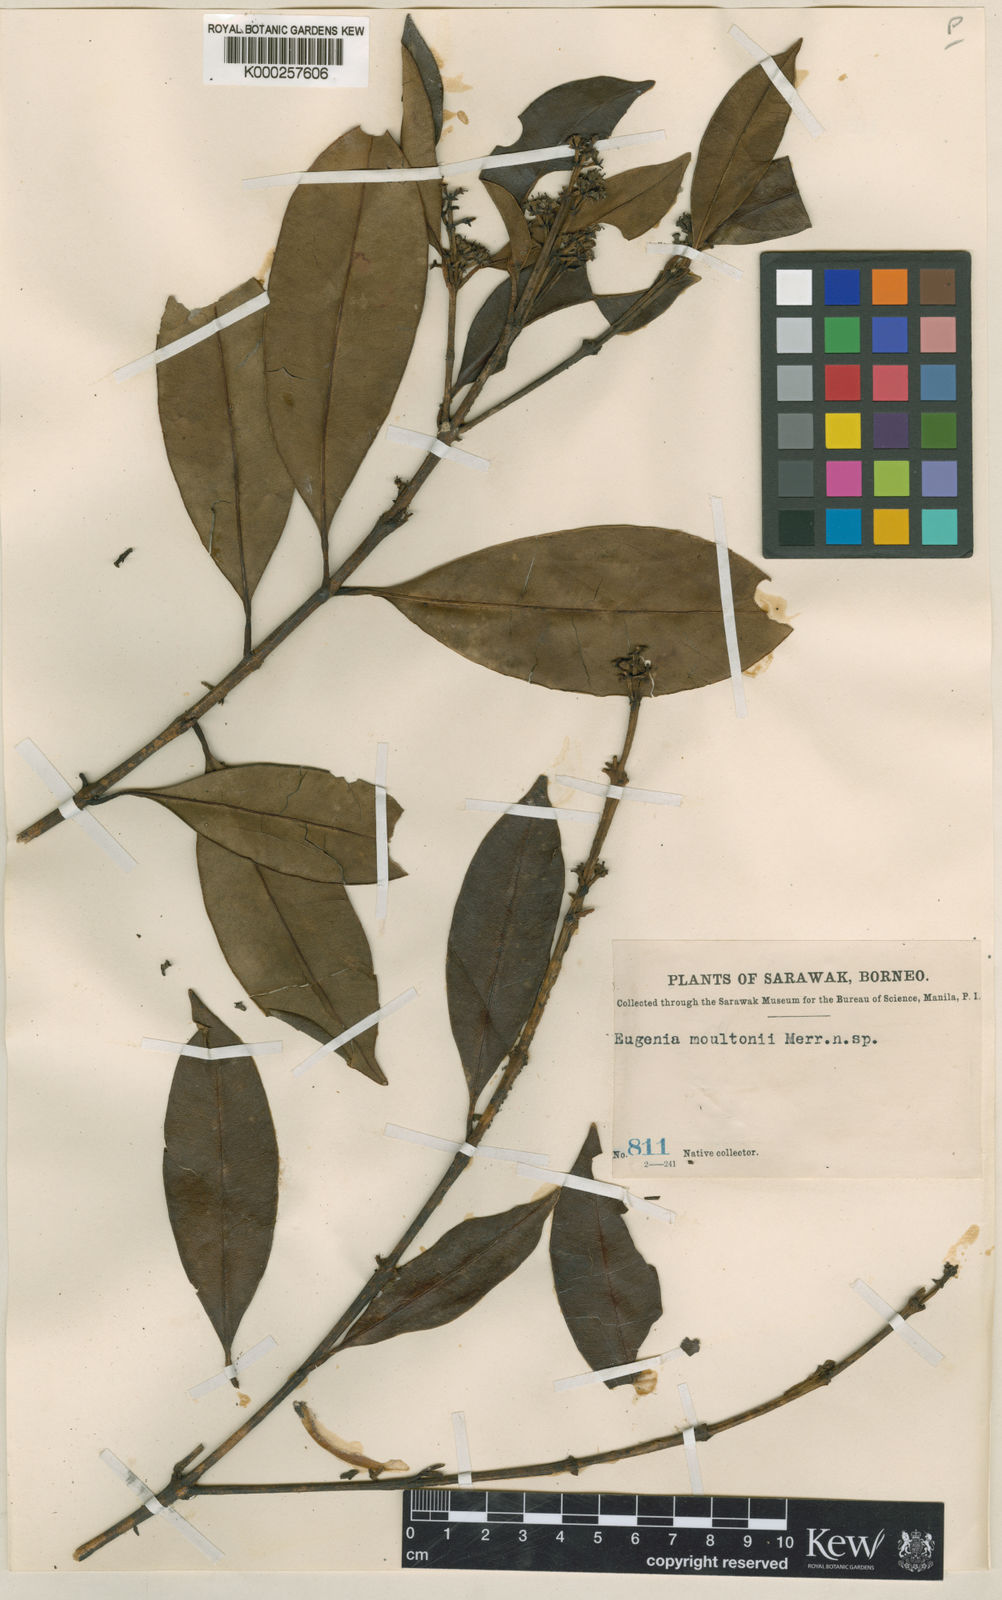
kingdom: Plantae
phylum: Tracheophyta
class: Magnoliopsida
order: Myrtales
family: Myrtaceae
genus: Syzygium
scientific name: Syzygium moultonii
